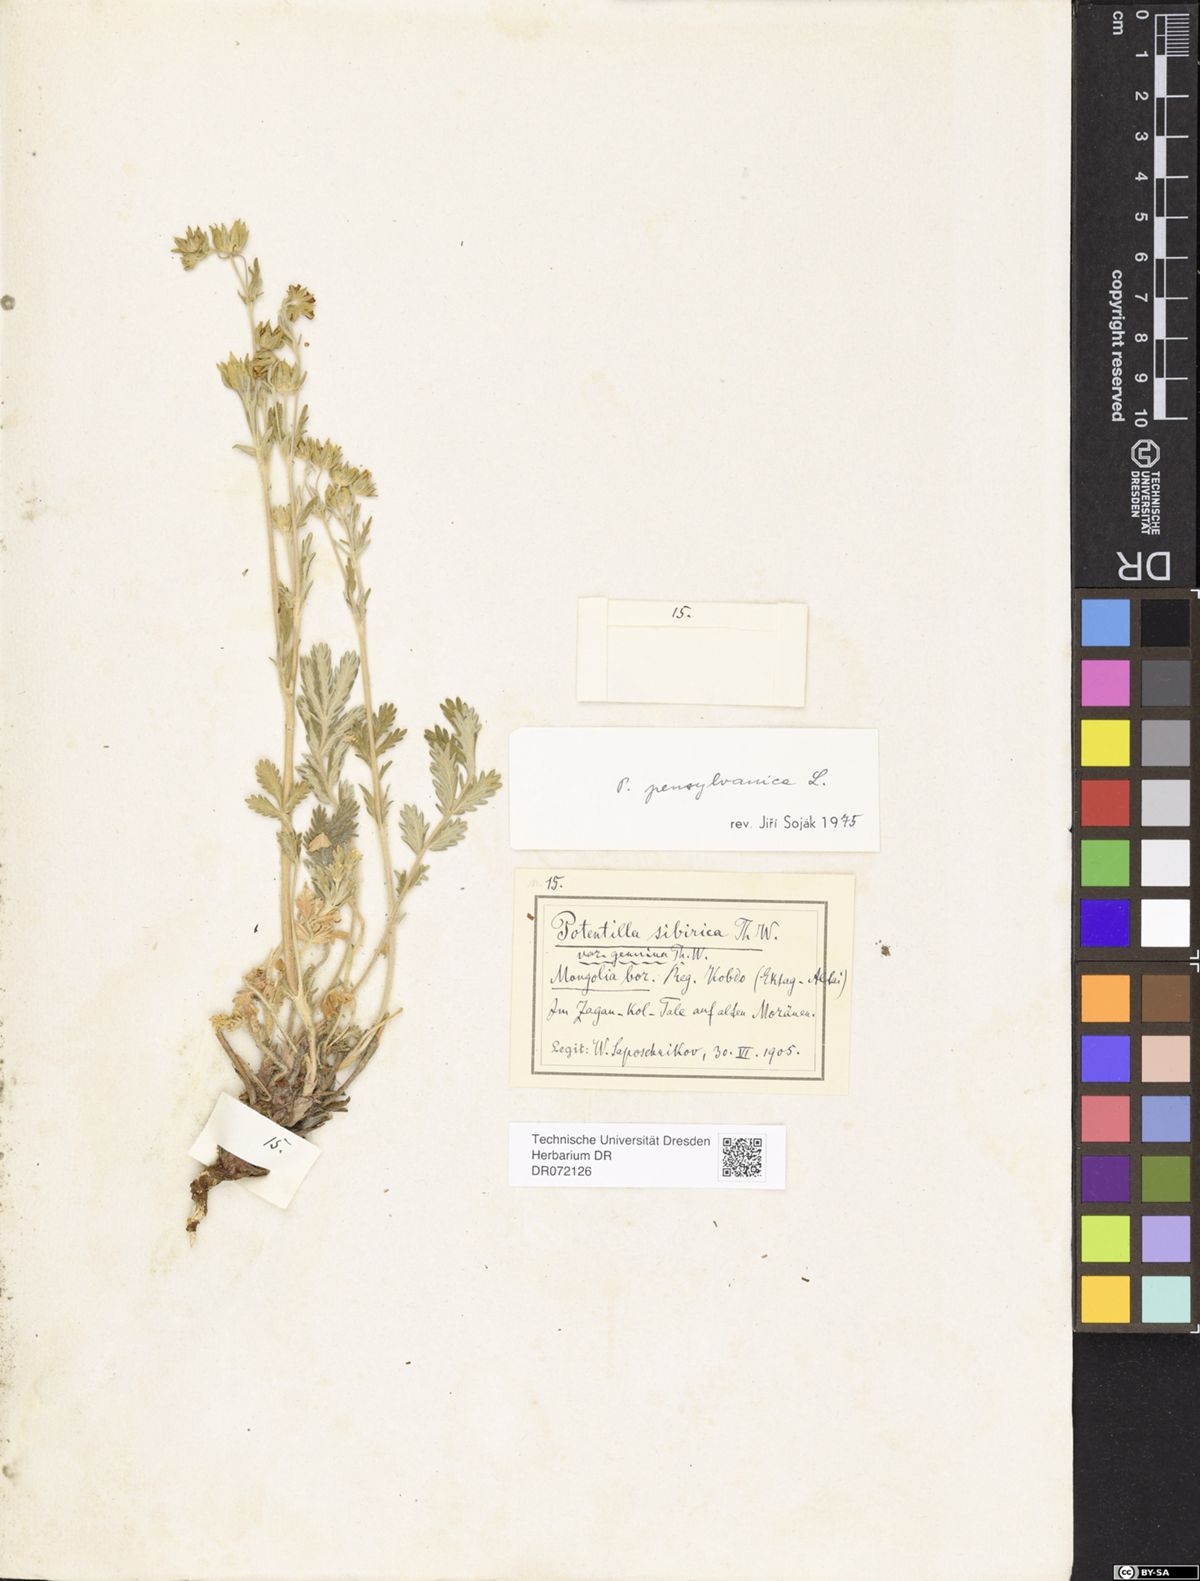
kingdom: Plantae
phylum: Tracheophyta
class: Magnoliopsida
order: Rosales
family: Rosaceae
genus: Potentilla
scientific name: Potentilla pensylvanica
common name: Pennsylvania cinquefoil
